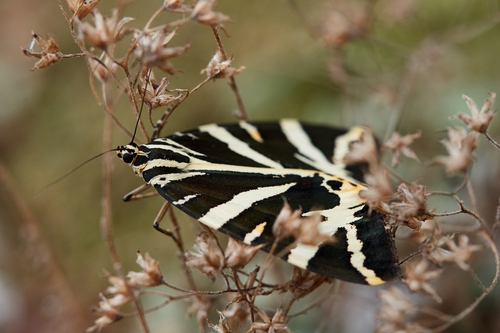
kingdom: Animalia
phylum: Arthropoda
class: Insecta
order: Lepidoptera
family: Erebidae
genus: Euplagia
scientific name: Euplagia quadripunctaria
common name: Jersey tiger
